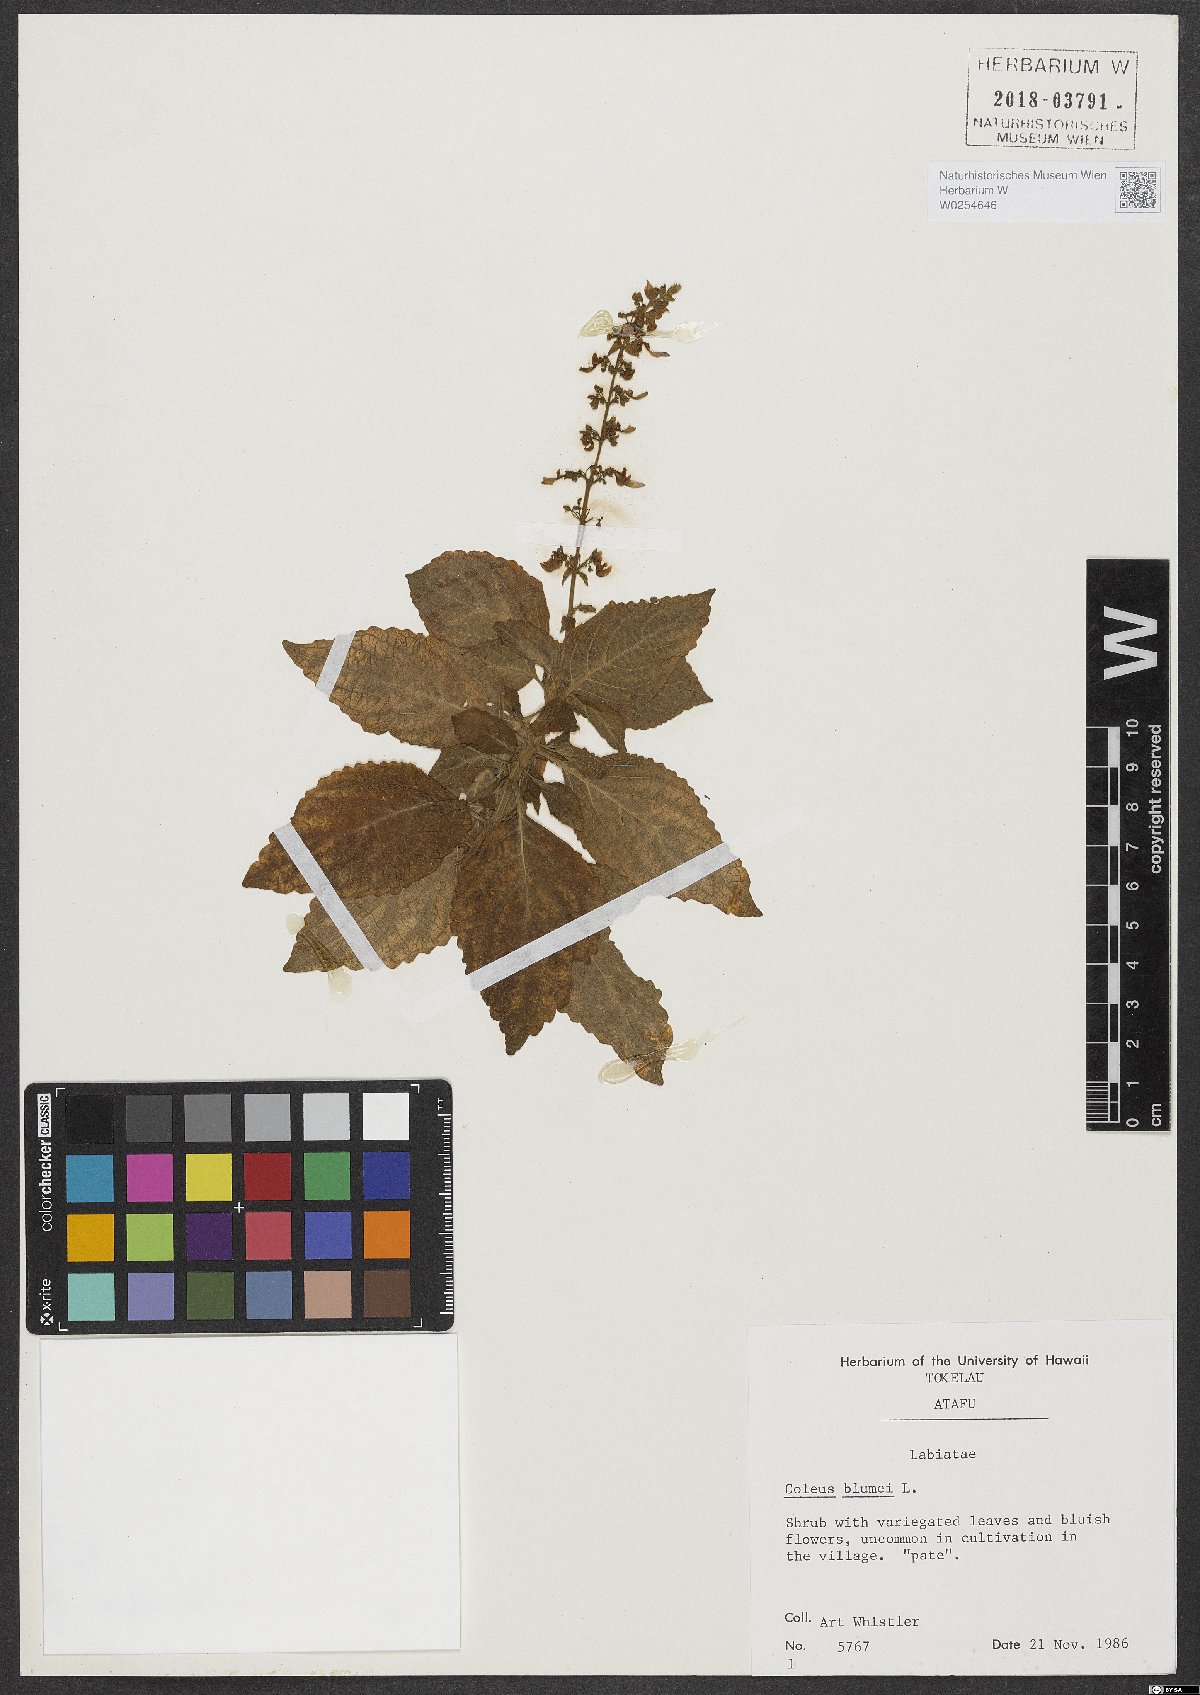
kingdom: Plantae
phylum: Tracheophyta
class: Magnoliopsida
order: Lamiales
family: Lamiaceae
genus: Coleus
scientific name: Coleus scutellarioides
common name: Coleus
